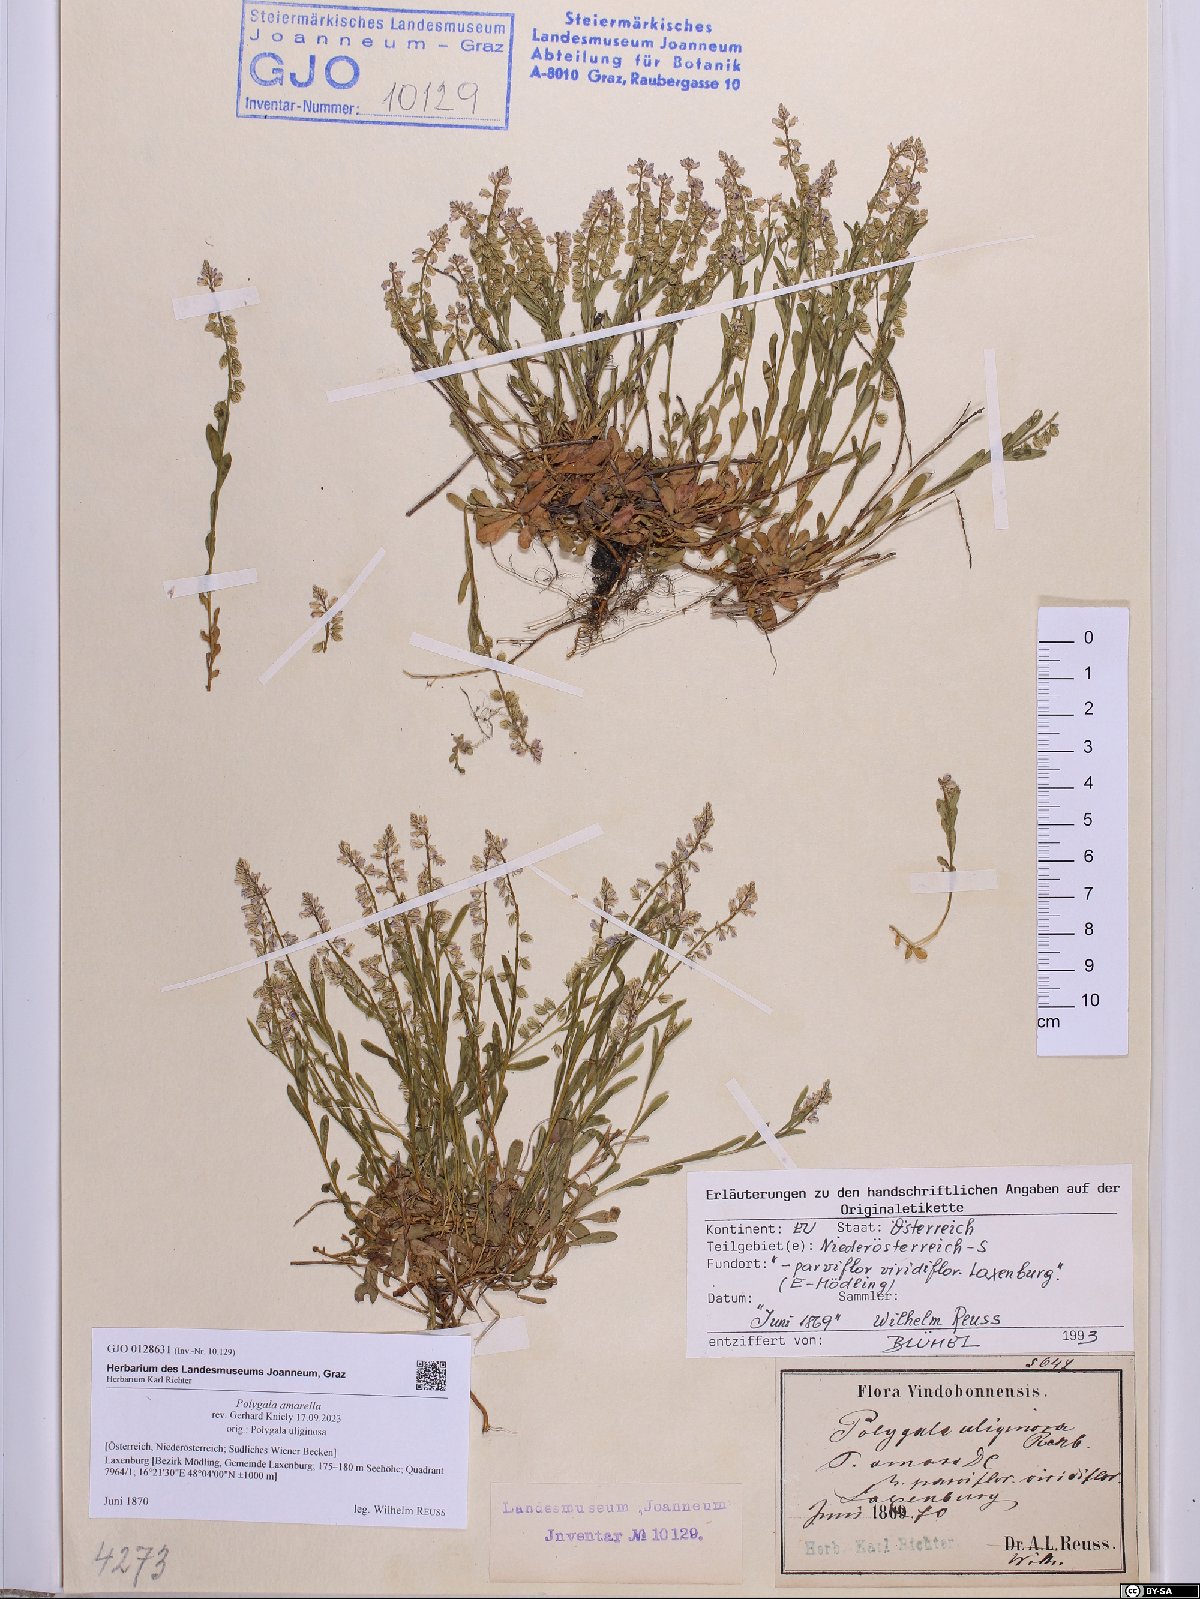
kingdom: Plantae
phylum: Tracheophyta
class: Magnoliopsida
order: Fabales
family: Polygalaceae
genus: Polygala
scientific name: Polygala amarella
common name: Dwarf milkwort
